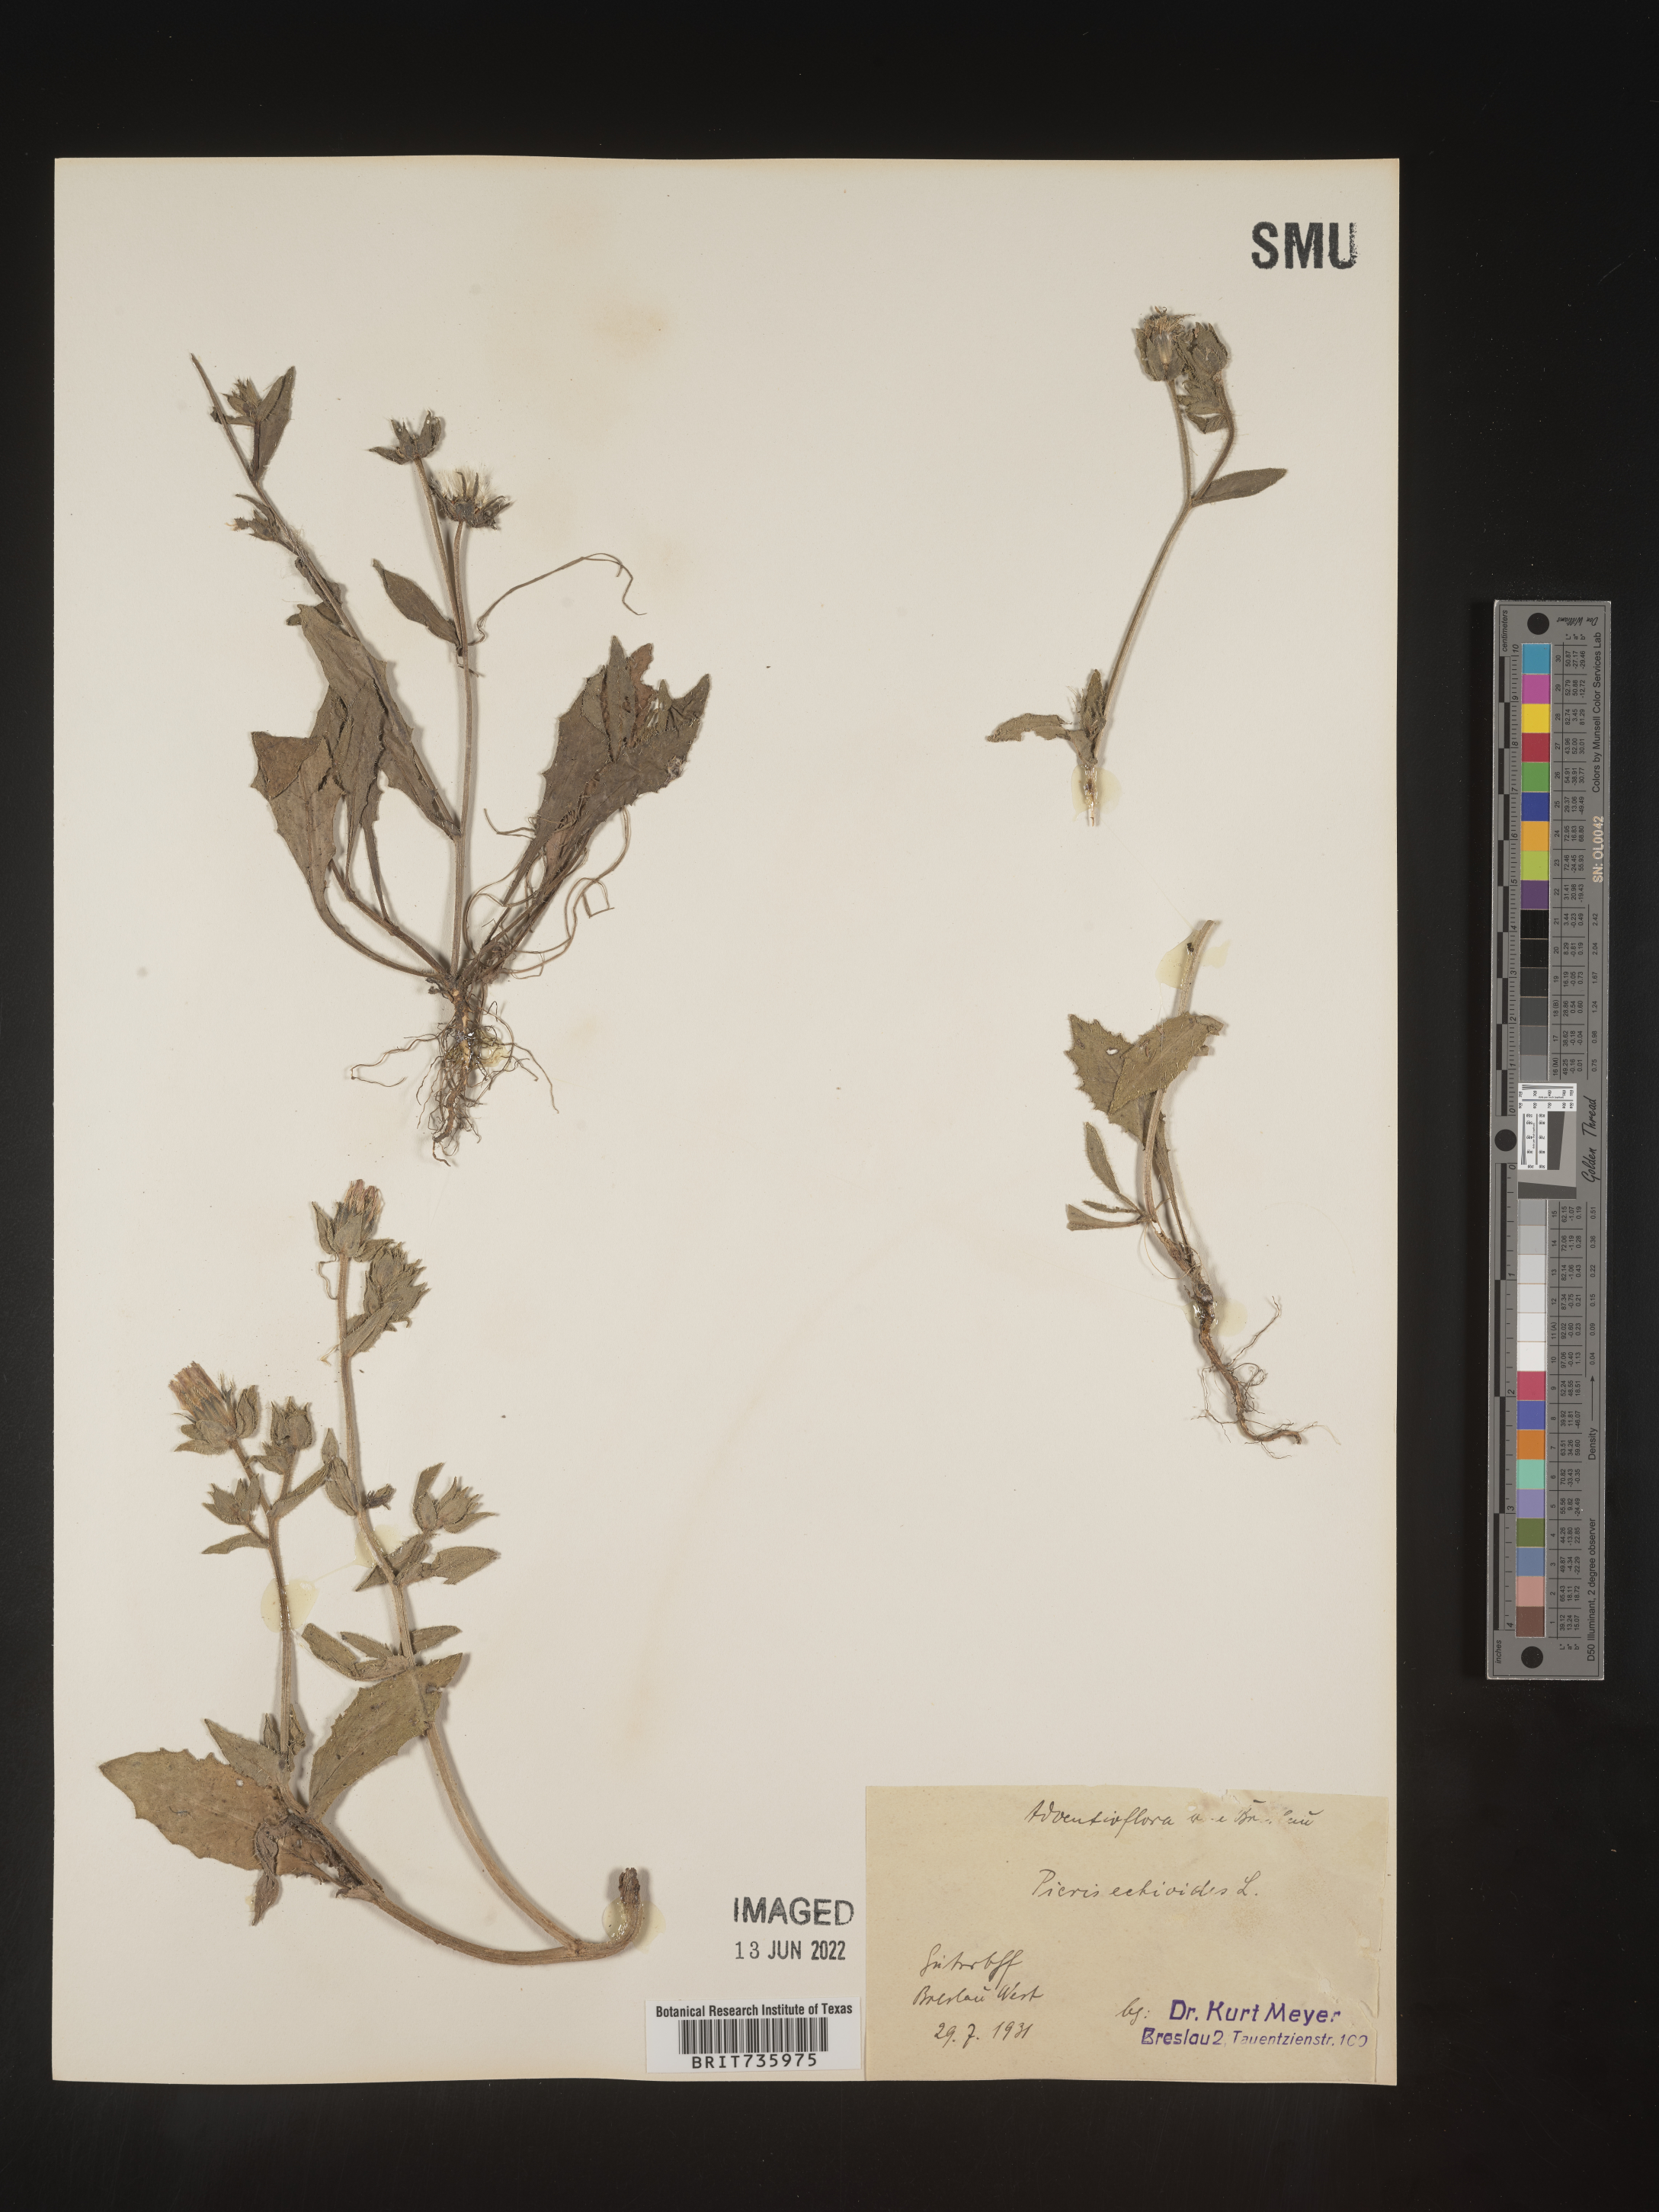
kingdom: Plantae
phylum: Tracheophyta
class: Magnoliopsida
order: Asterales
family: Asteraceae
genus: Picris
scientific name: Picris
